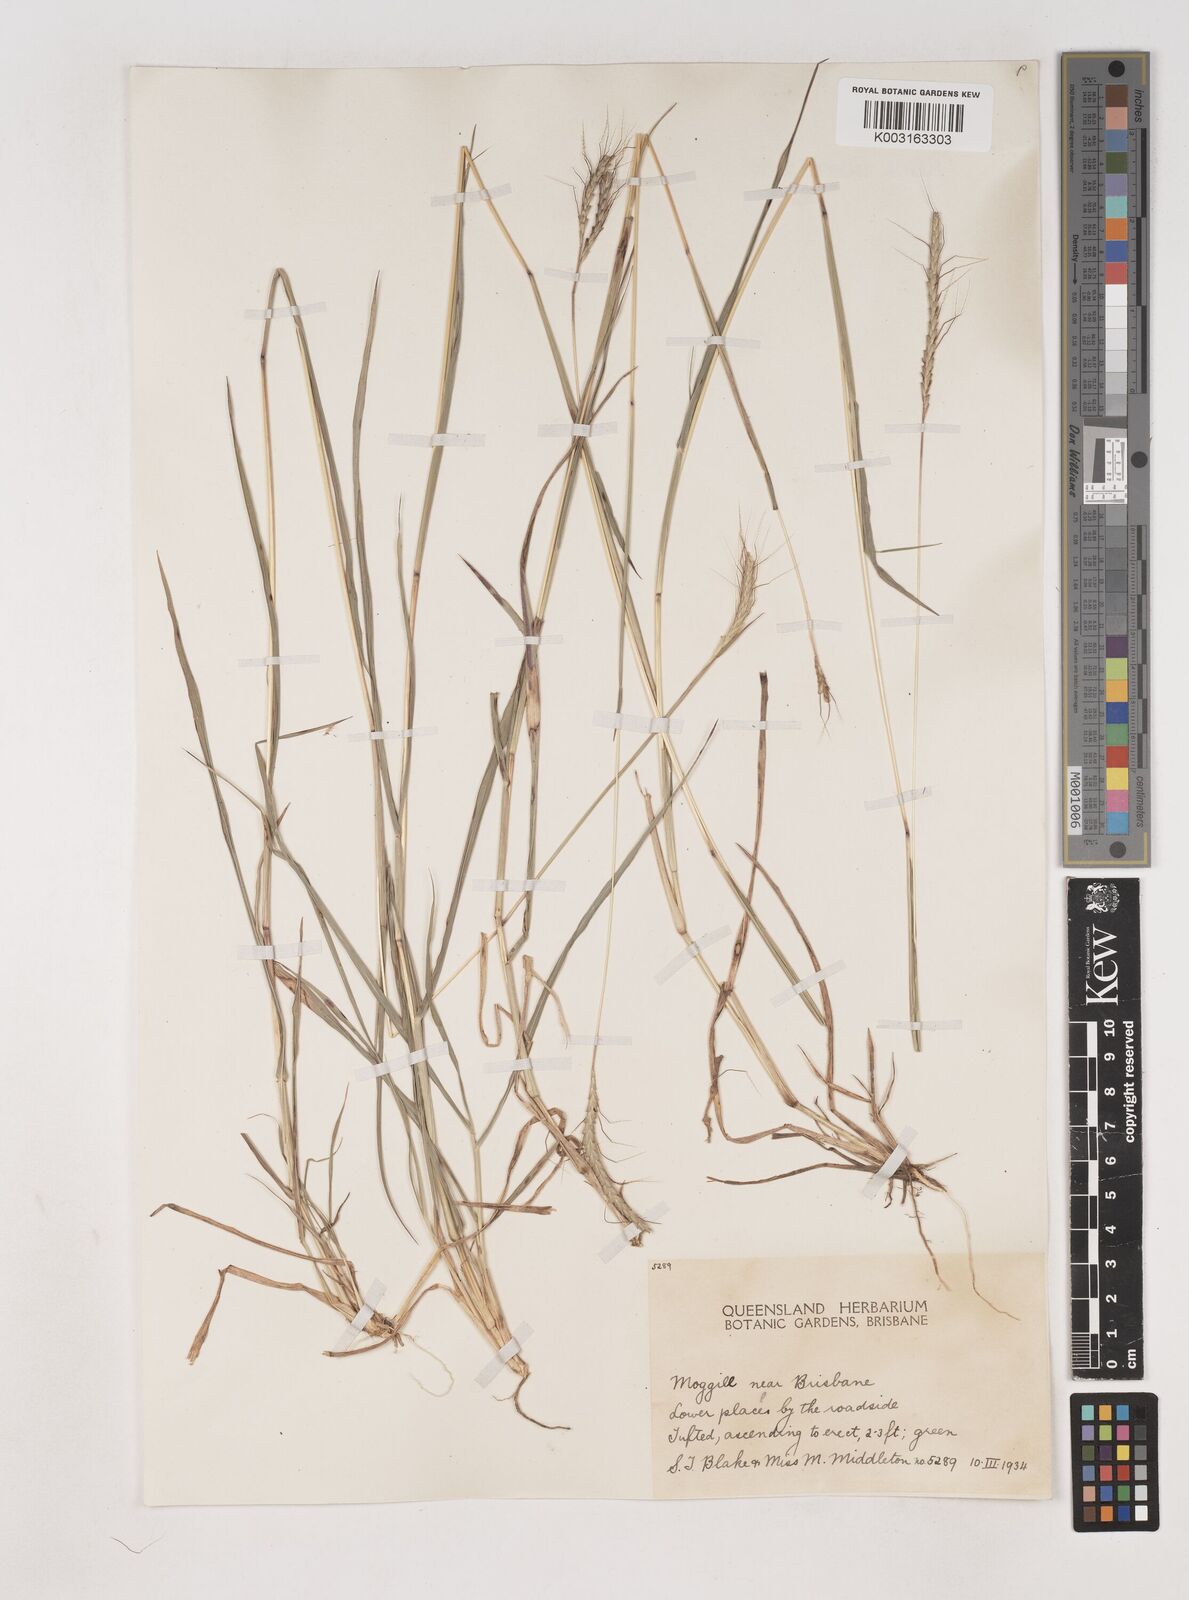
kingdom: Plantae
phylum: Tracheophyta
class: Liliopsida
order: Poales
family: Poaceae
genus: Dichanthium
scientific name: Dichanthium aristatum
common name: Angleton bluestem
